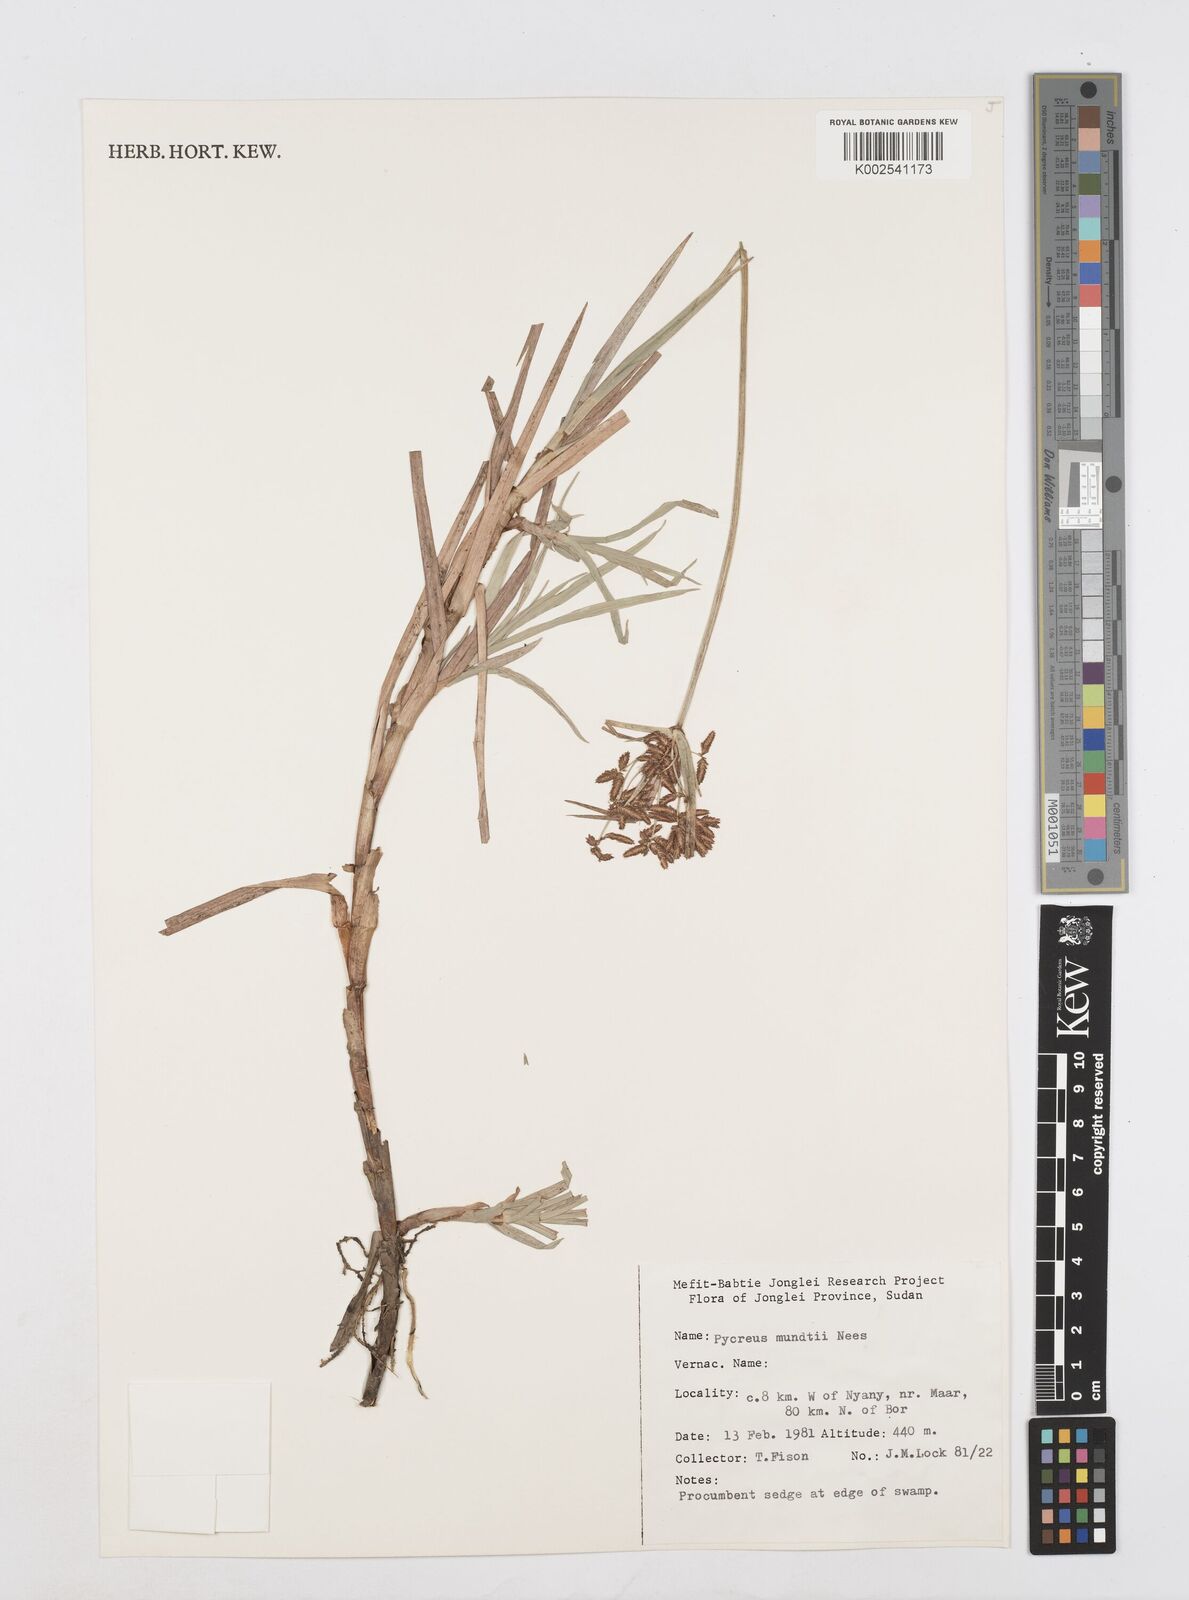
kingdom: Plantae
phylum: Tracheophyta
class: Liliopsida
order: Poales
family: Cyperaceae
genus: Cyperus
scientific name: Cyperus mundii
